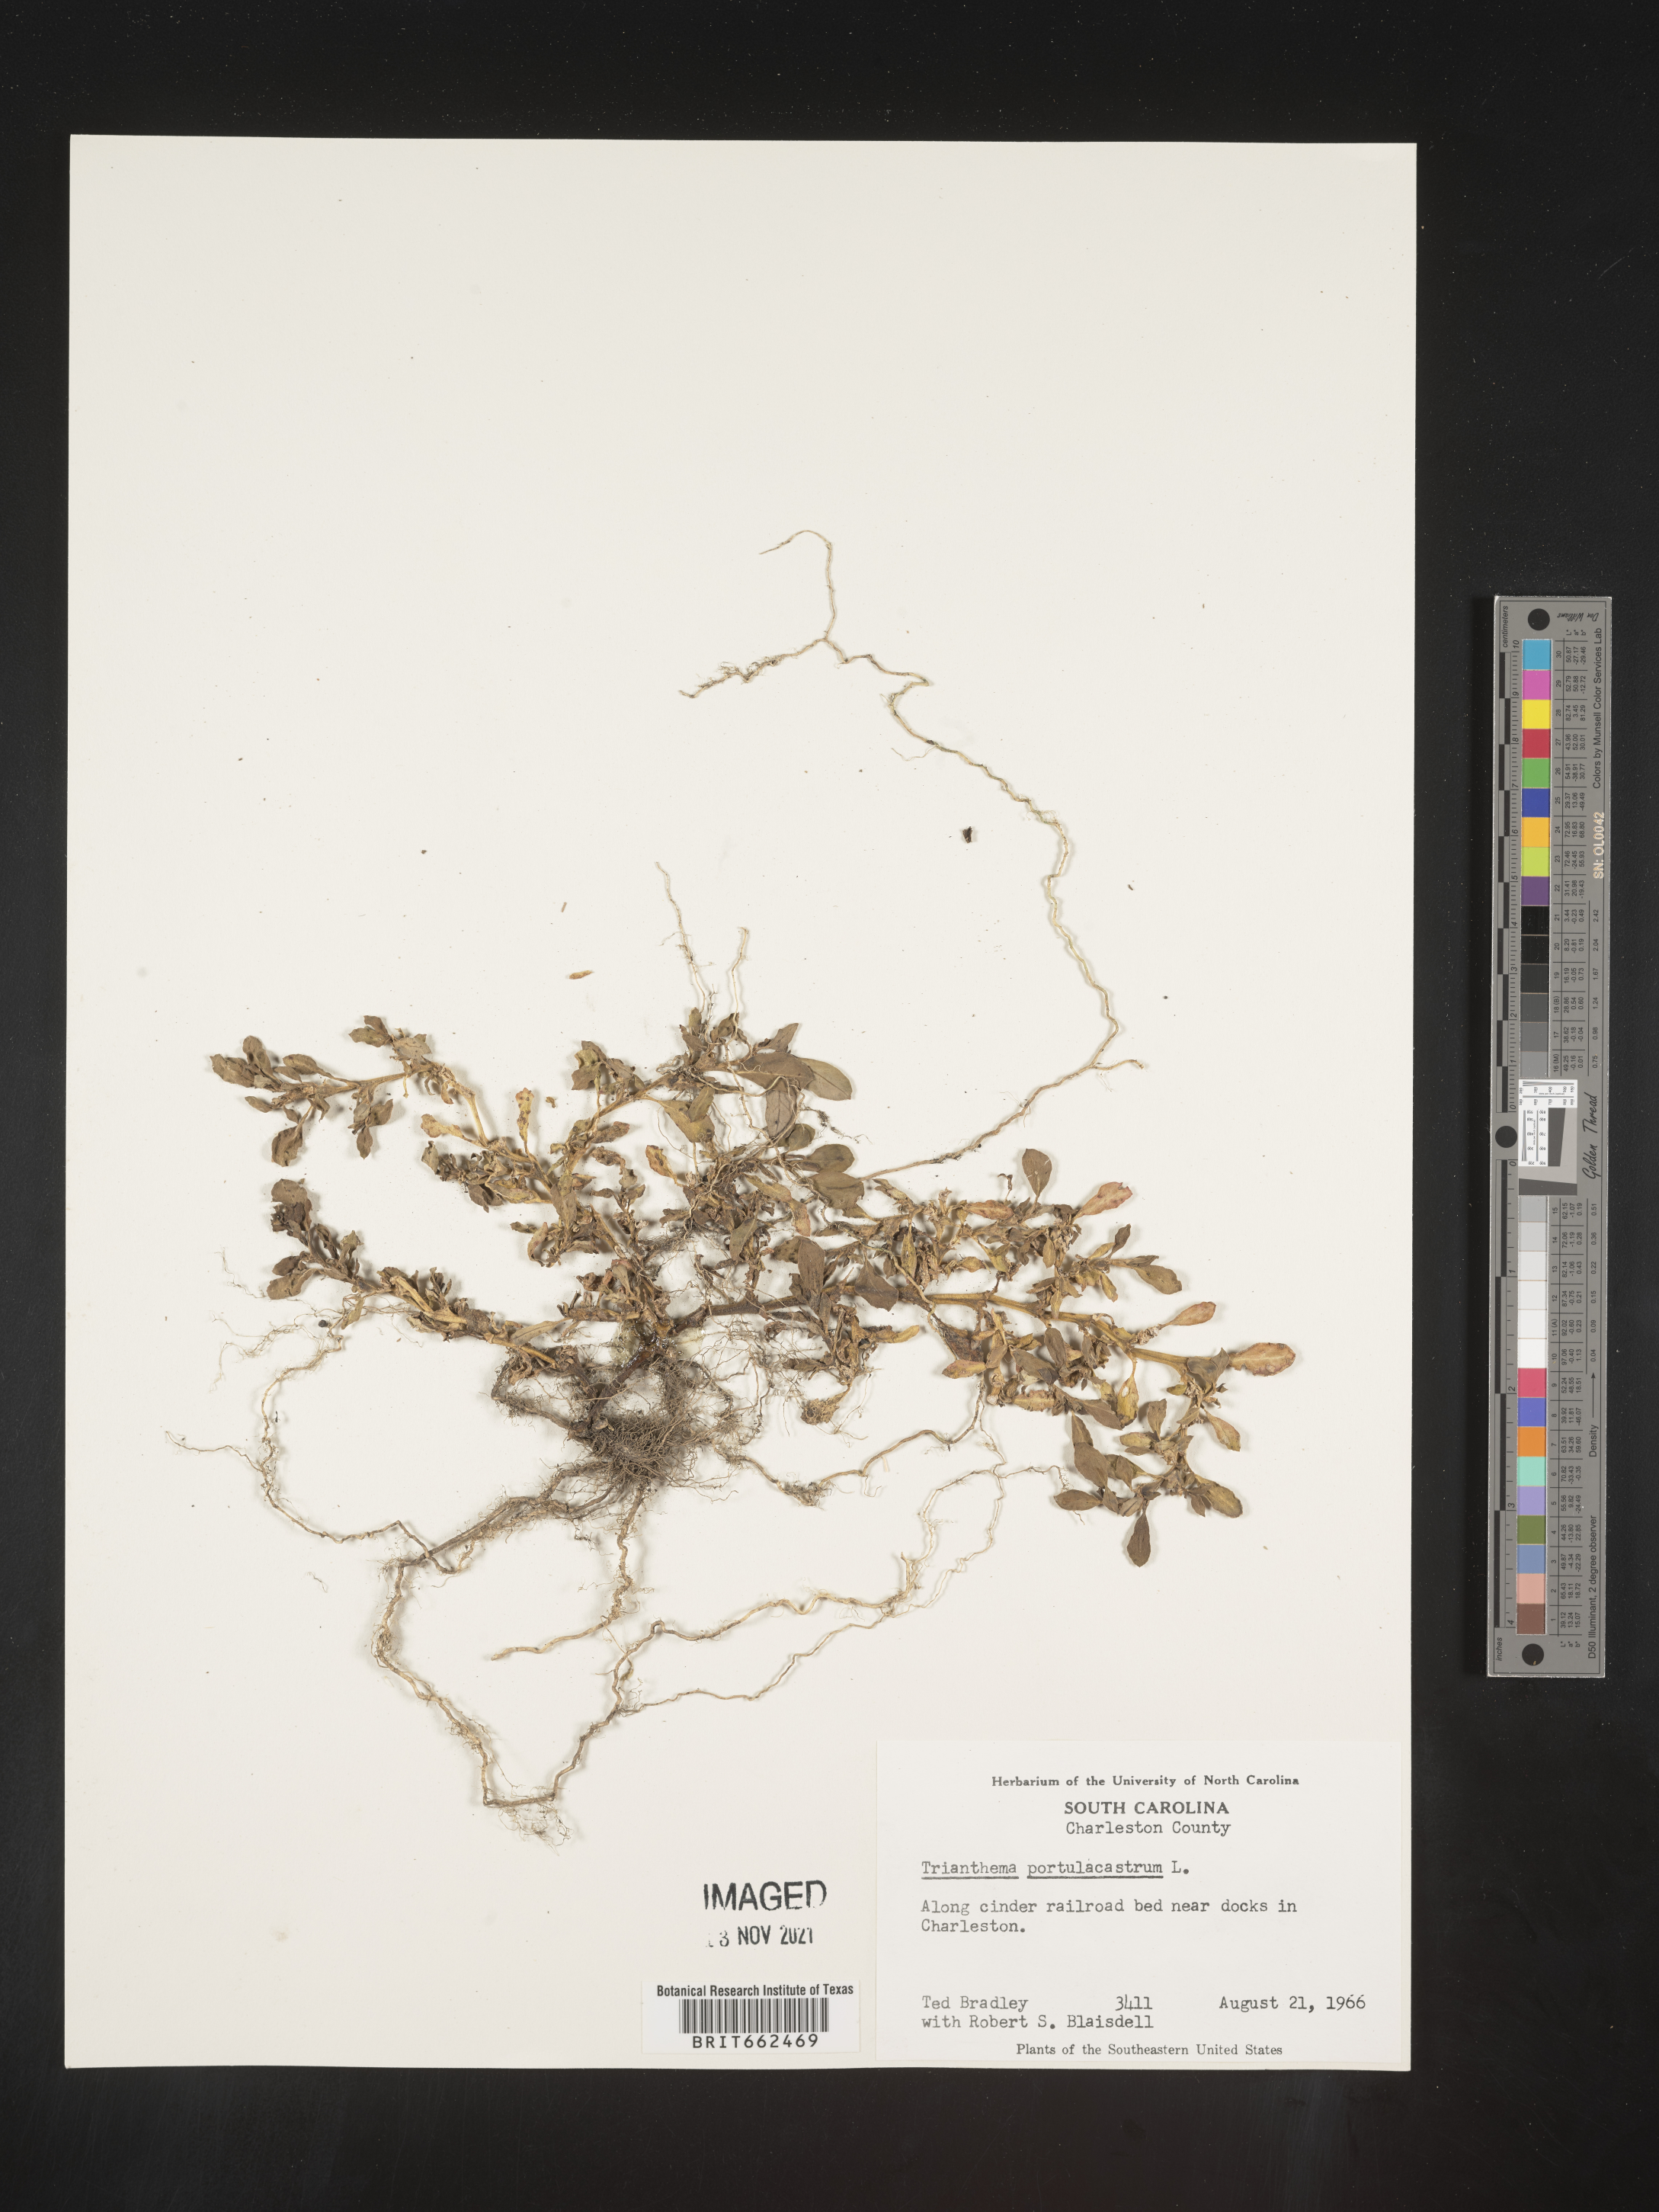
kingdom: Plantae
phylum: Tracheophyta
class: Magnoliopsida
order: Caryophyllales
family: Aizoaceae
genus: Trianthema
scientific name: Trianthema
